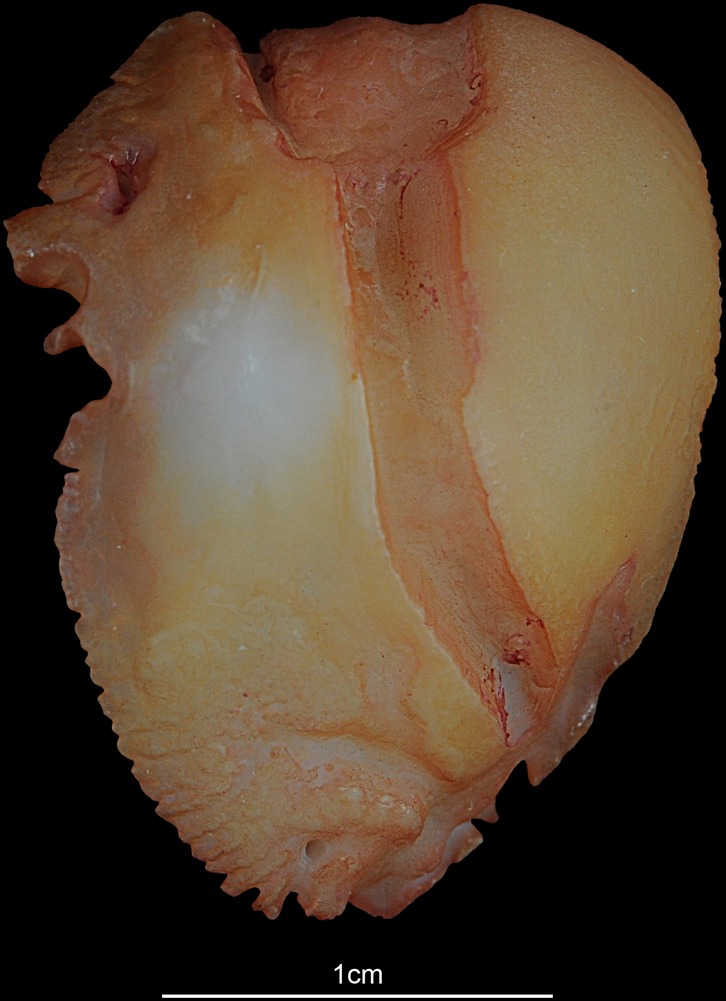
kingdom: Animalia
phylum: Chordata
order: Perciformes
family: Lutjanidae
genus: Lutjanus
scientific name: Lutjanus
